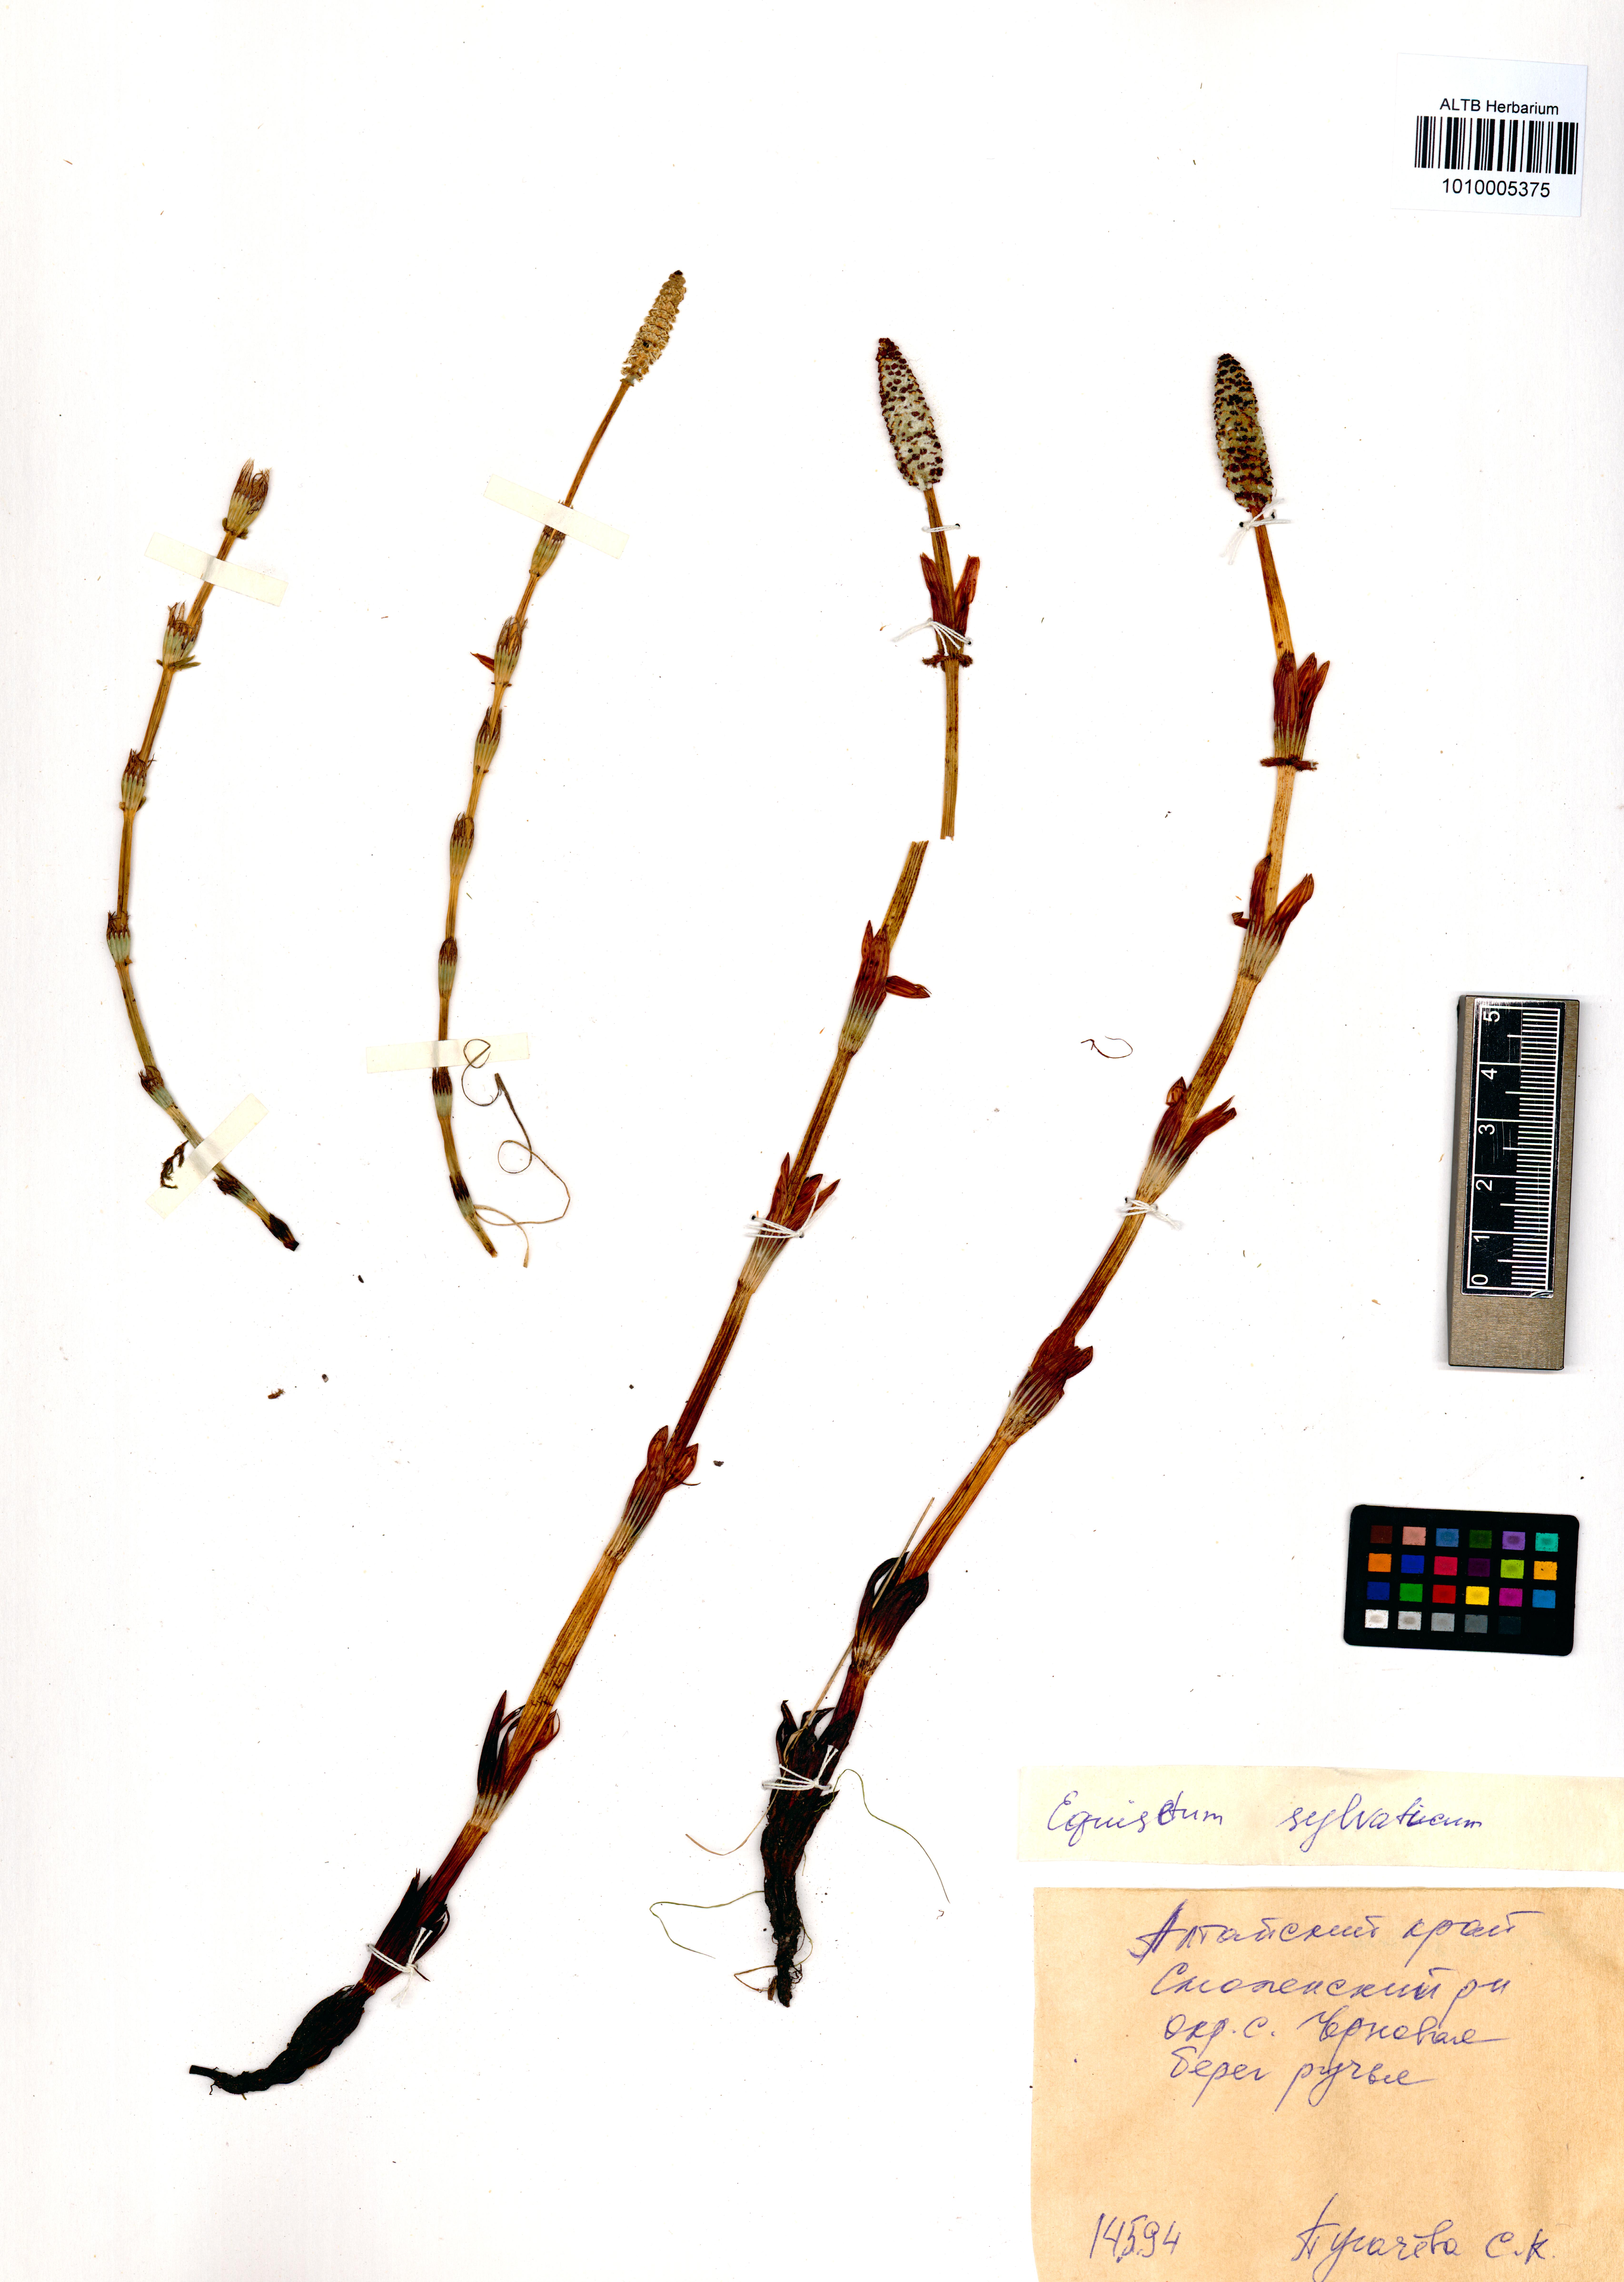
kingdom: Plantae
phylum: Tracheophyta
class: Polypodiopsida
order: Equisetales
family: Equisetaceae
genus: Equisetum
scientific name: Equisetum sylvaticum
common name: Wood horsetail
